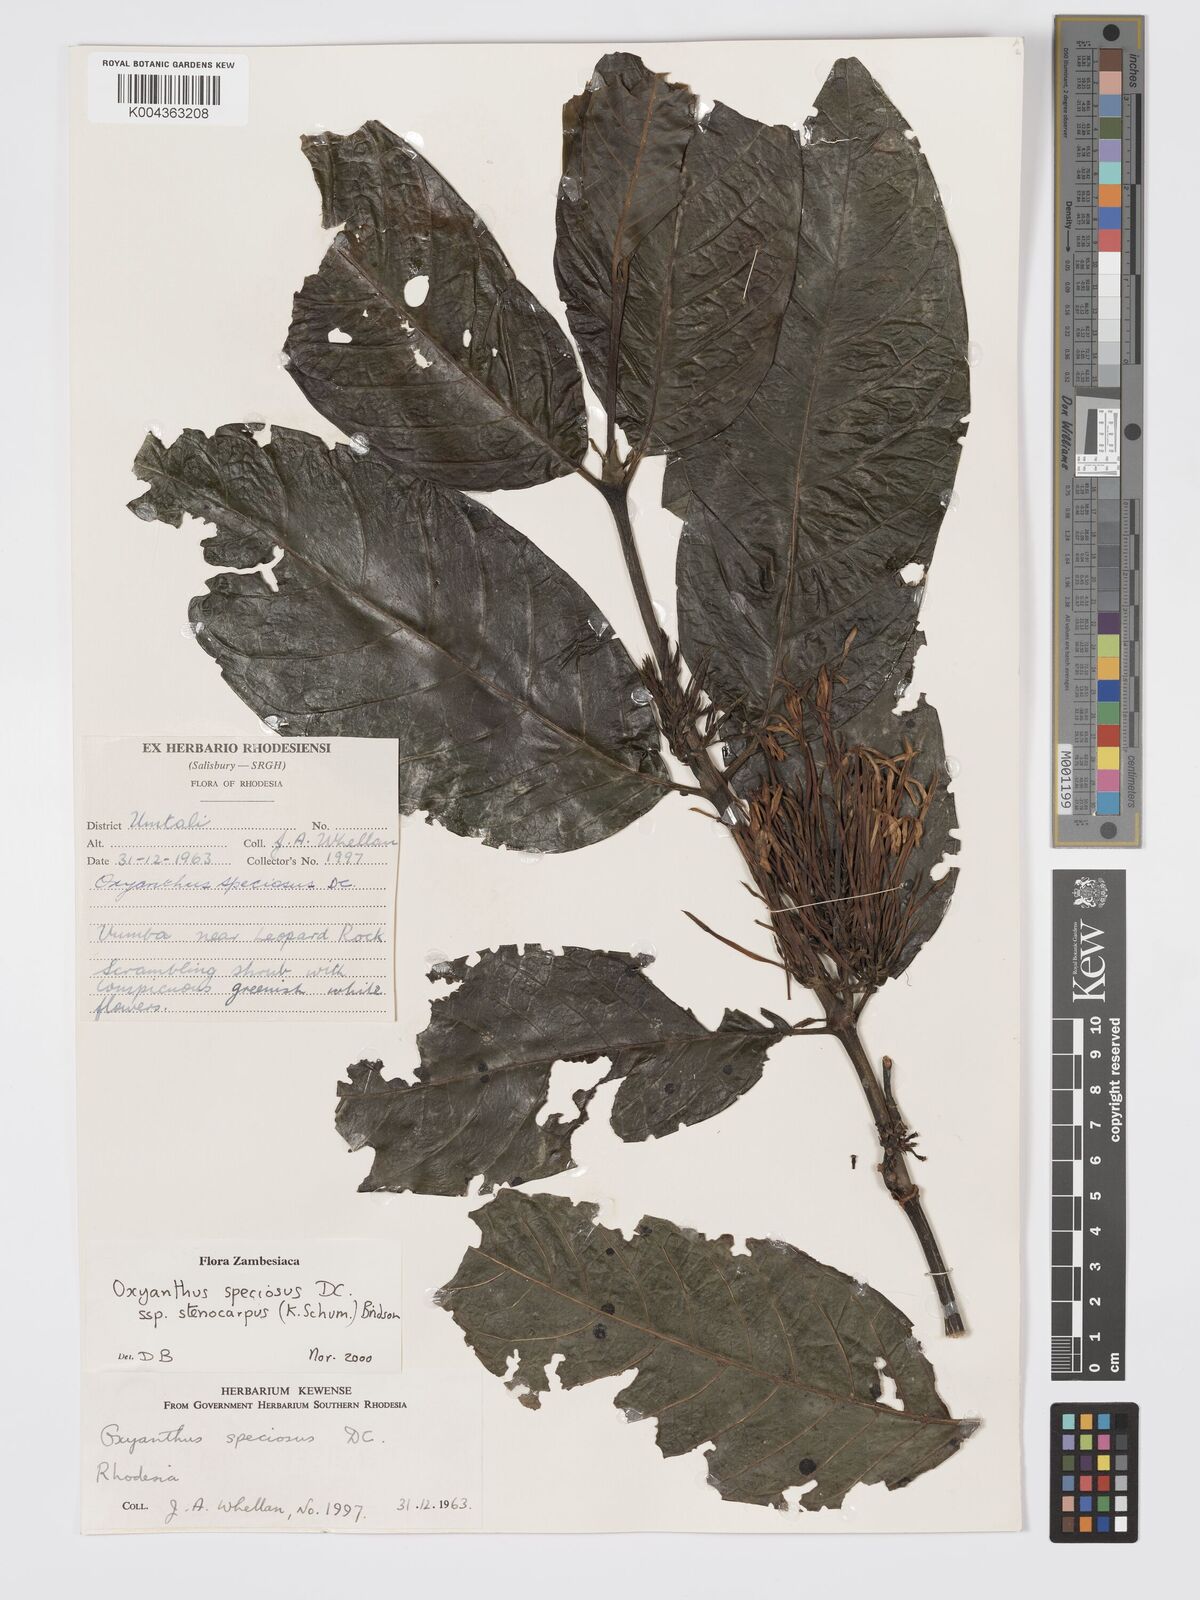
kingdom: Plantae
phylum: Tracheophyta
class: Magnoliopsida
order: Gentianales
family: Rubiaceae
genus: Oxyanthus
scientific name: Oxyanthus speciosus
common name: Whipstick loquat
